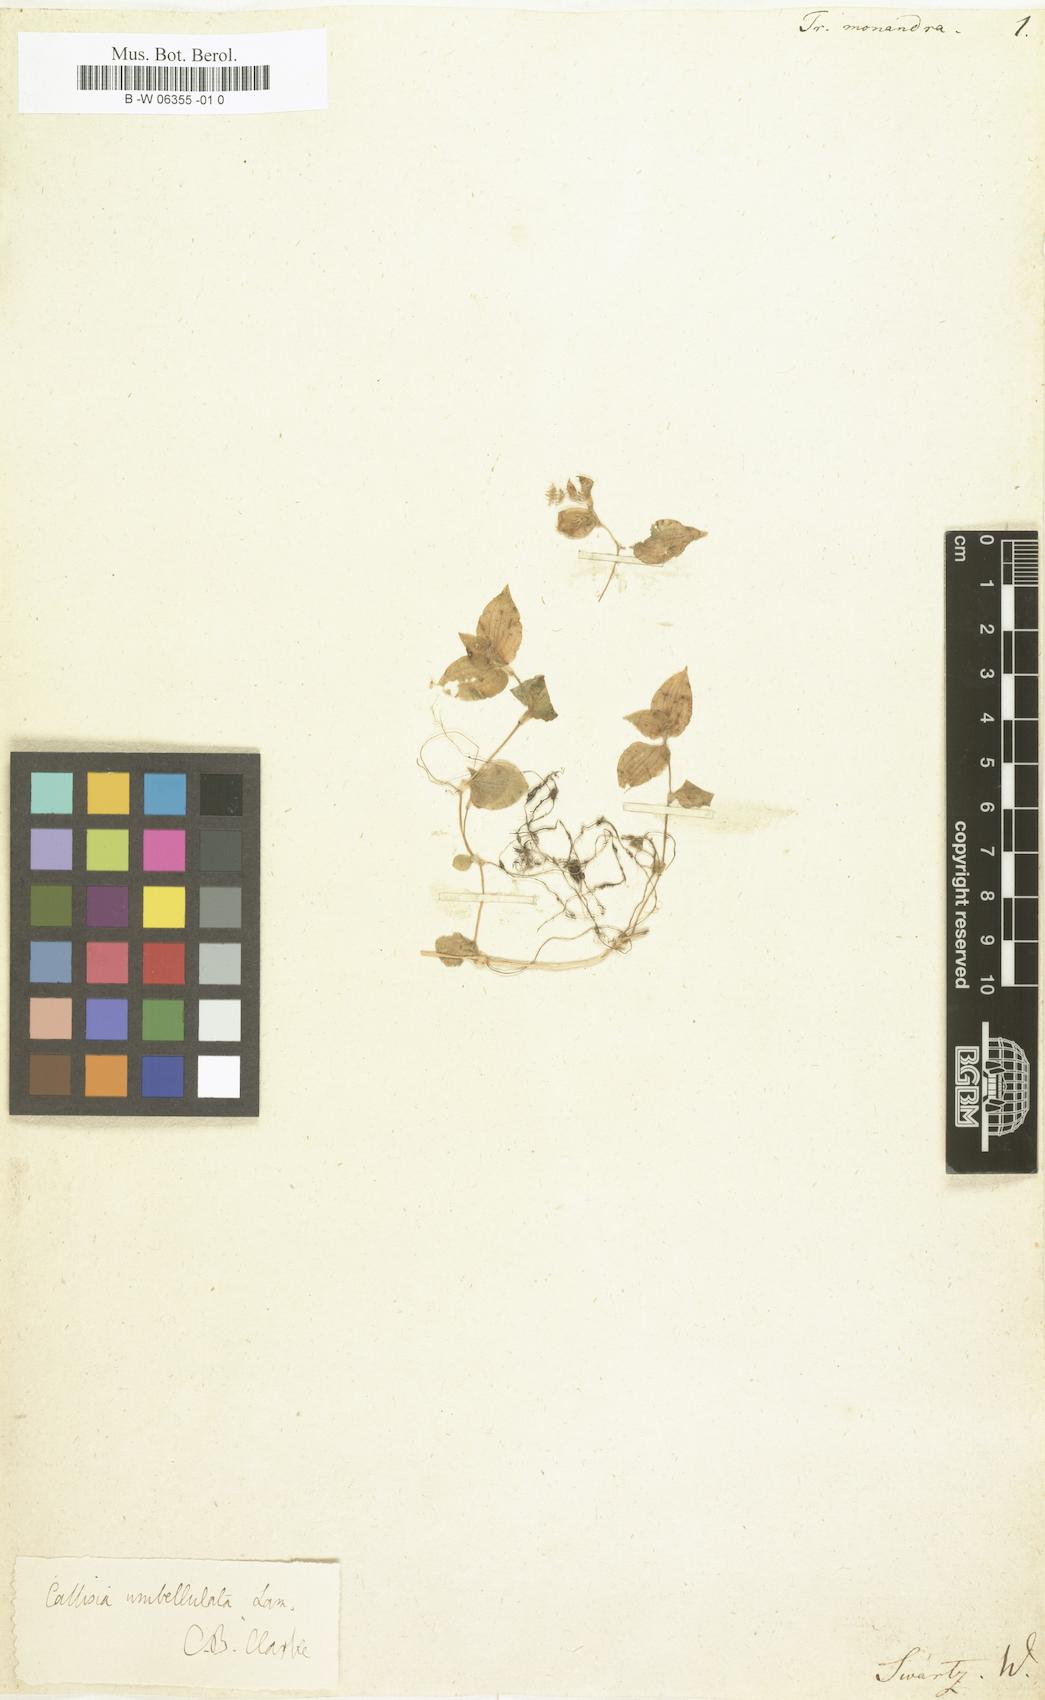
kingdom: Plantae
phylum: Tracheophyta
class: Liliopsida
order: Commelinales
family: Commelinaceae
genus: Callisia
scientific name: Callisia monandra
